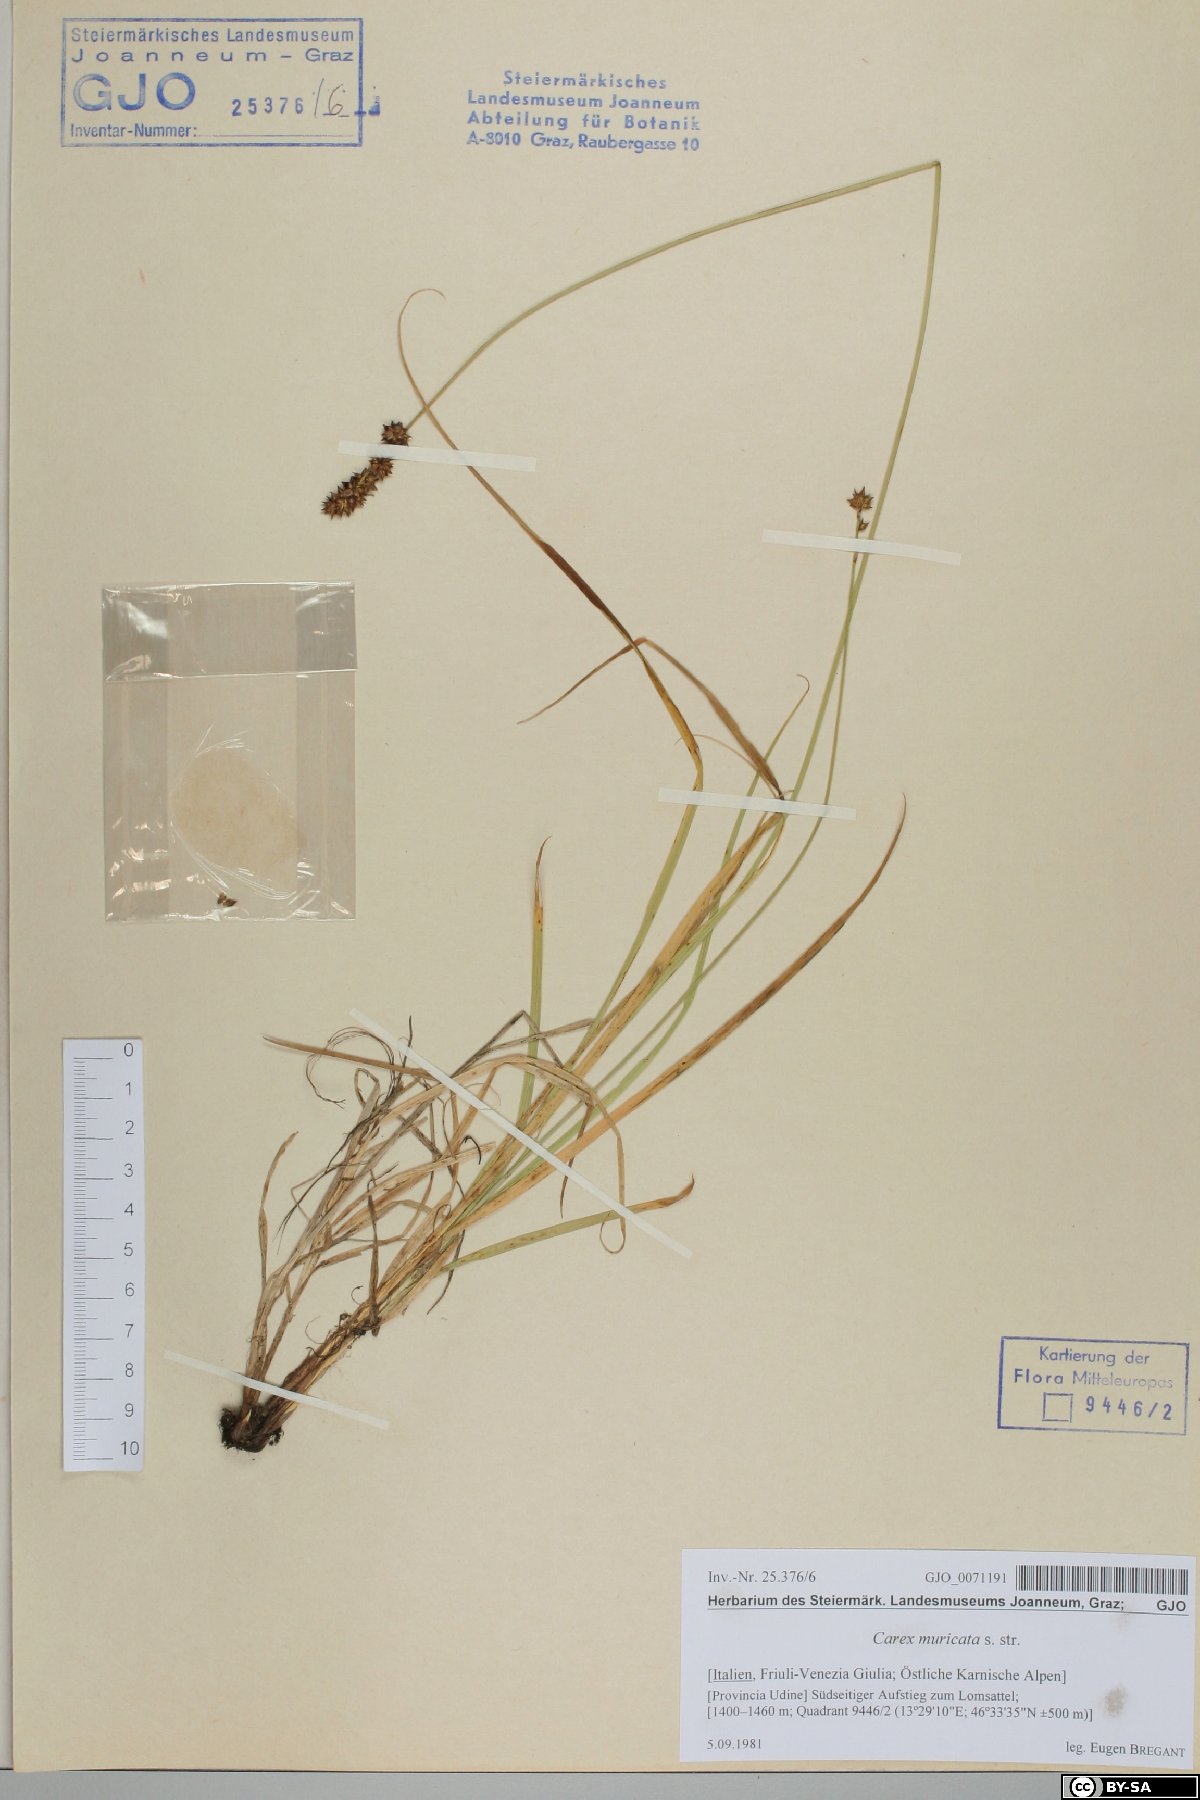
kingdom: Plantae
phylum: Tracheophyta
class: Liliopsida
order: Poales
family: Cyperaceae
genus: Carex
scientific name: Carex muricata
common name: Rough sedge
